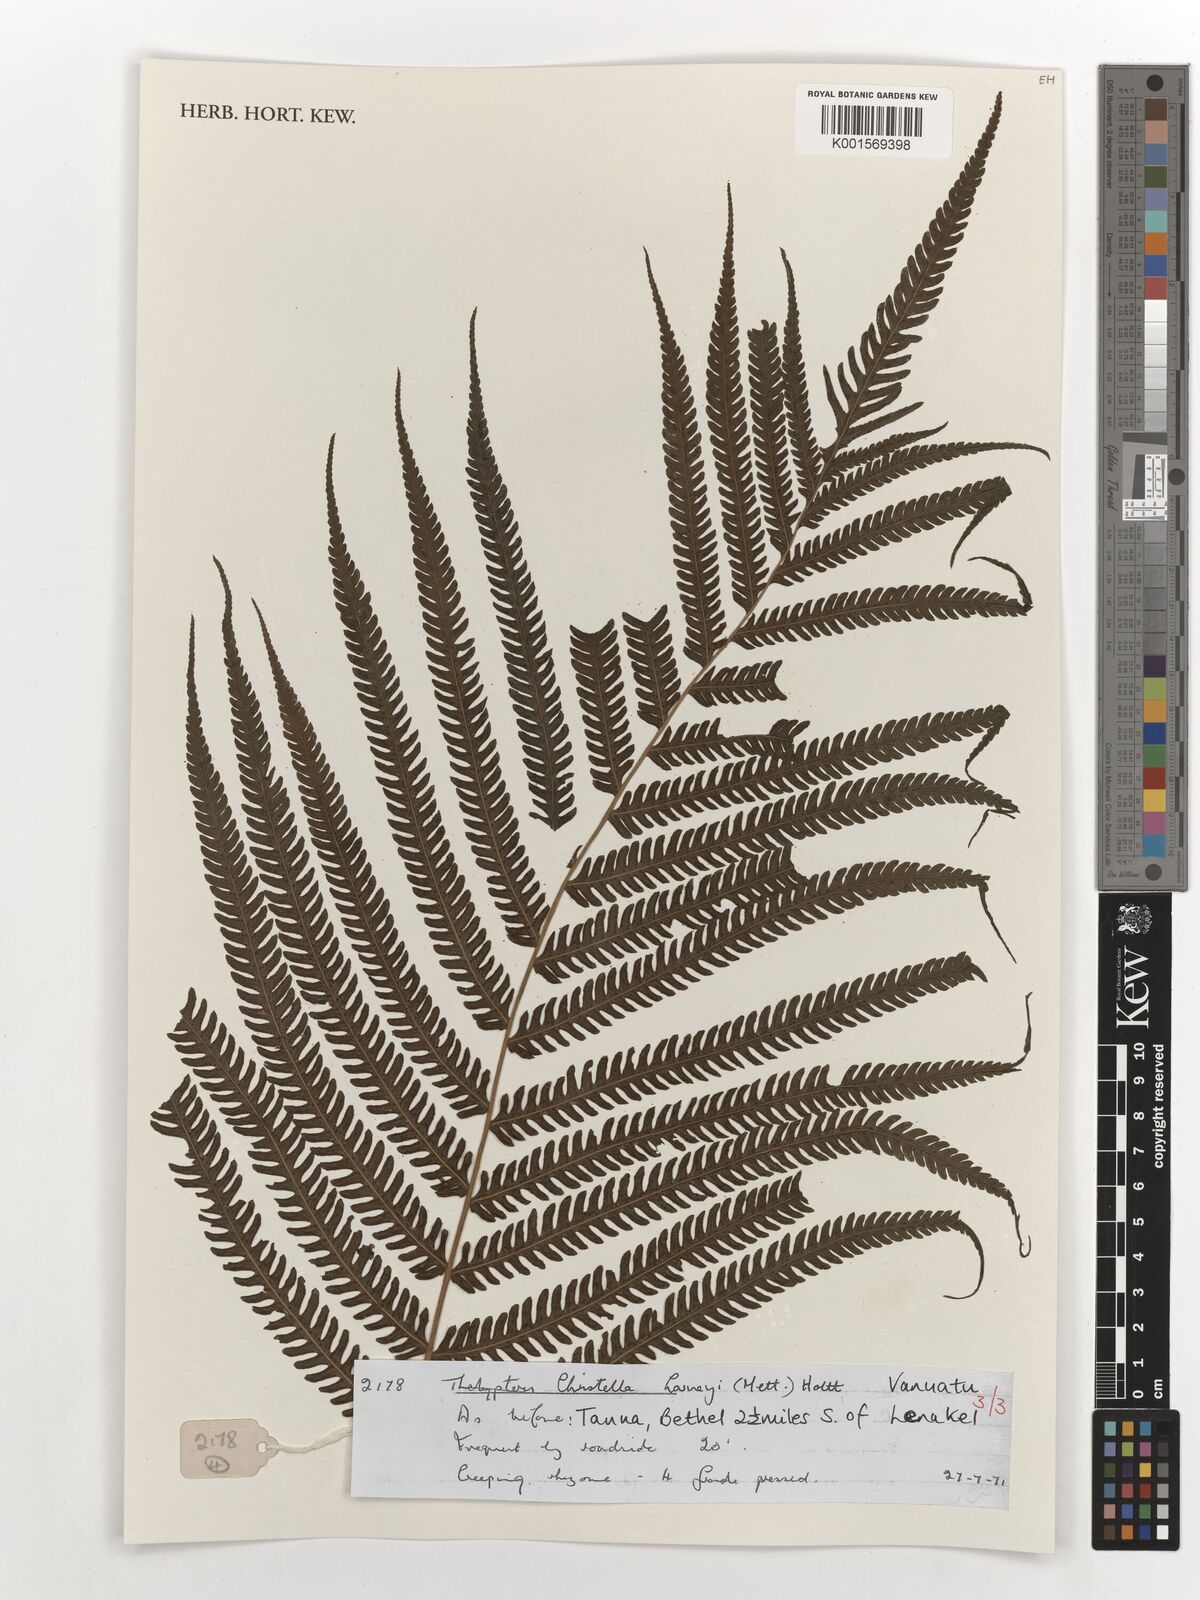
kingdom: Plantae
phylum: Tracheophyta
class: Polypodiopsida
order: Polypodiales
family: Thelypteridaceae
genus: Christella
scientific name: Christella harveyi
